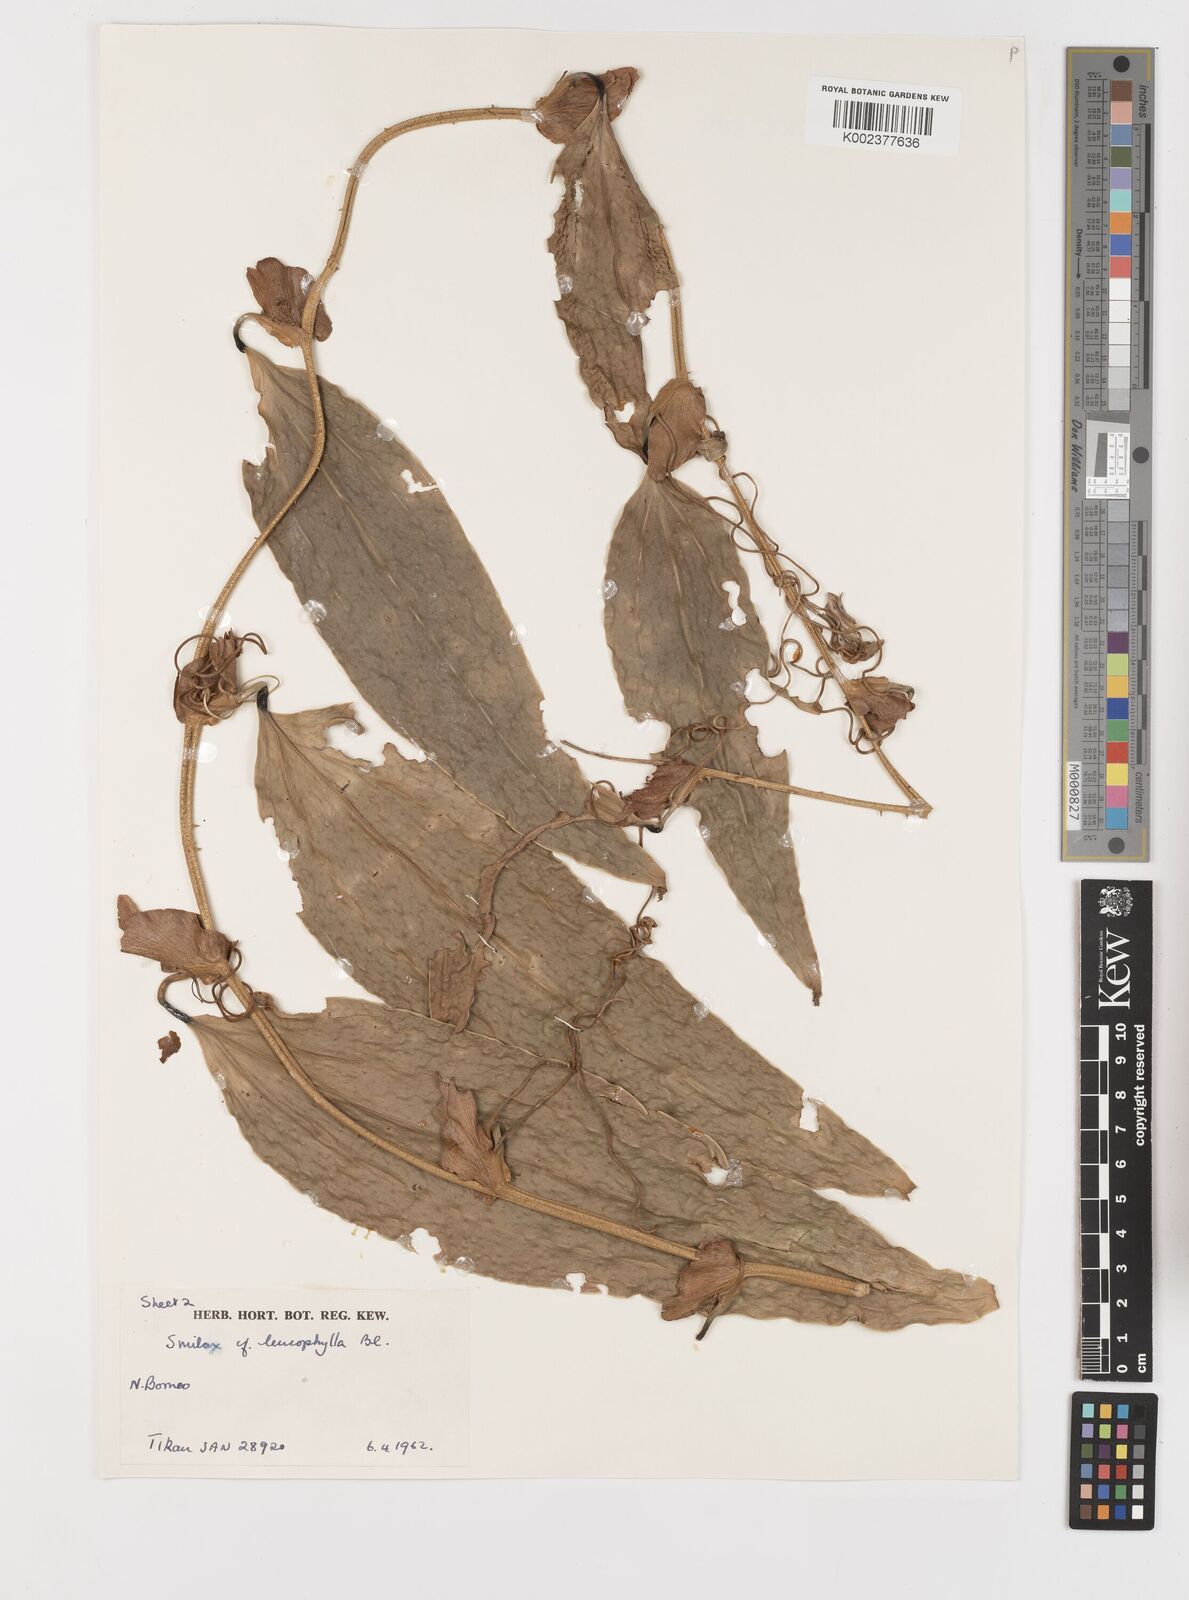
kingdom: Plantae
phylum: Tracheophyta
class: Liliopsida
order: Liliales
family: Smilacaceae
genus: Smilax
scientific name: Smilax leucophylla
